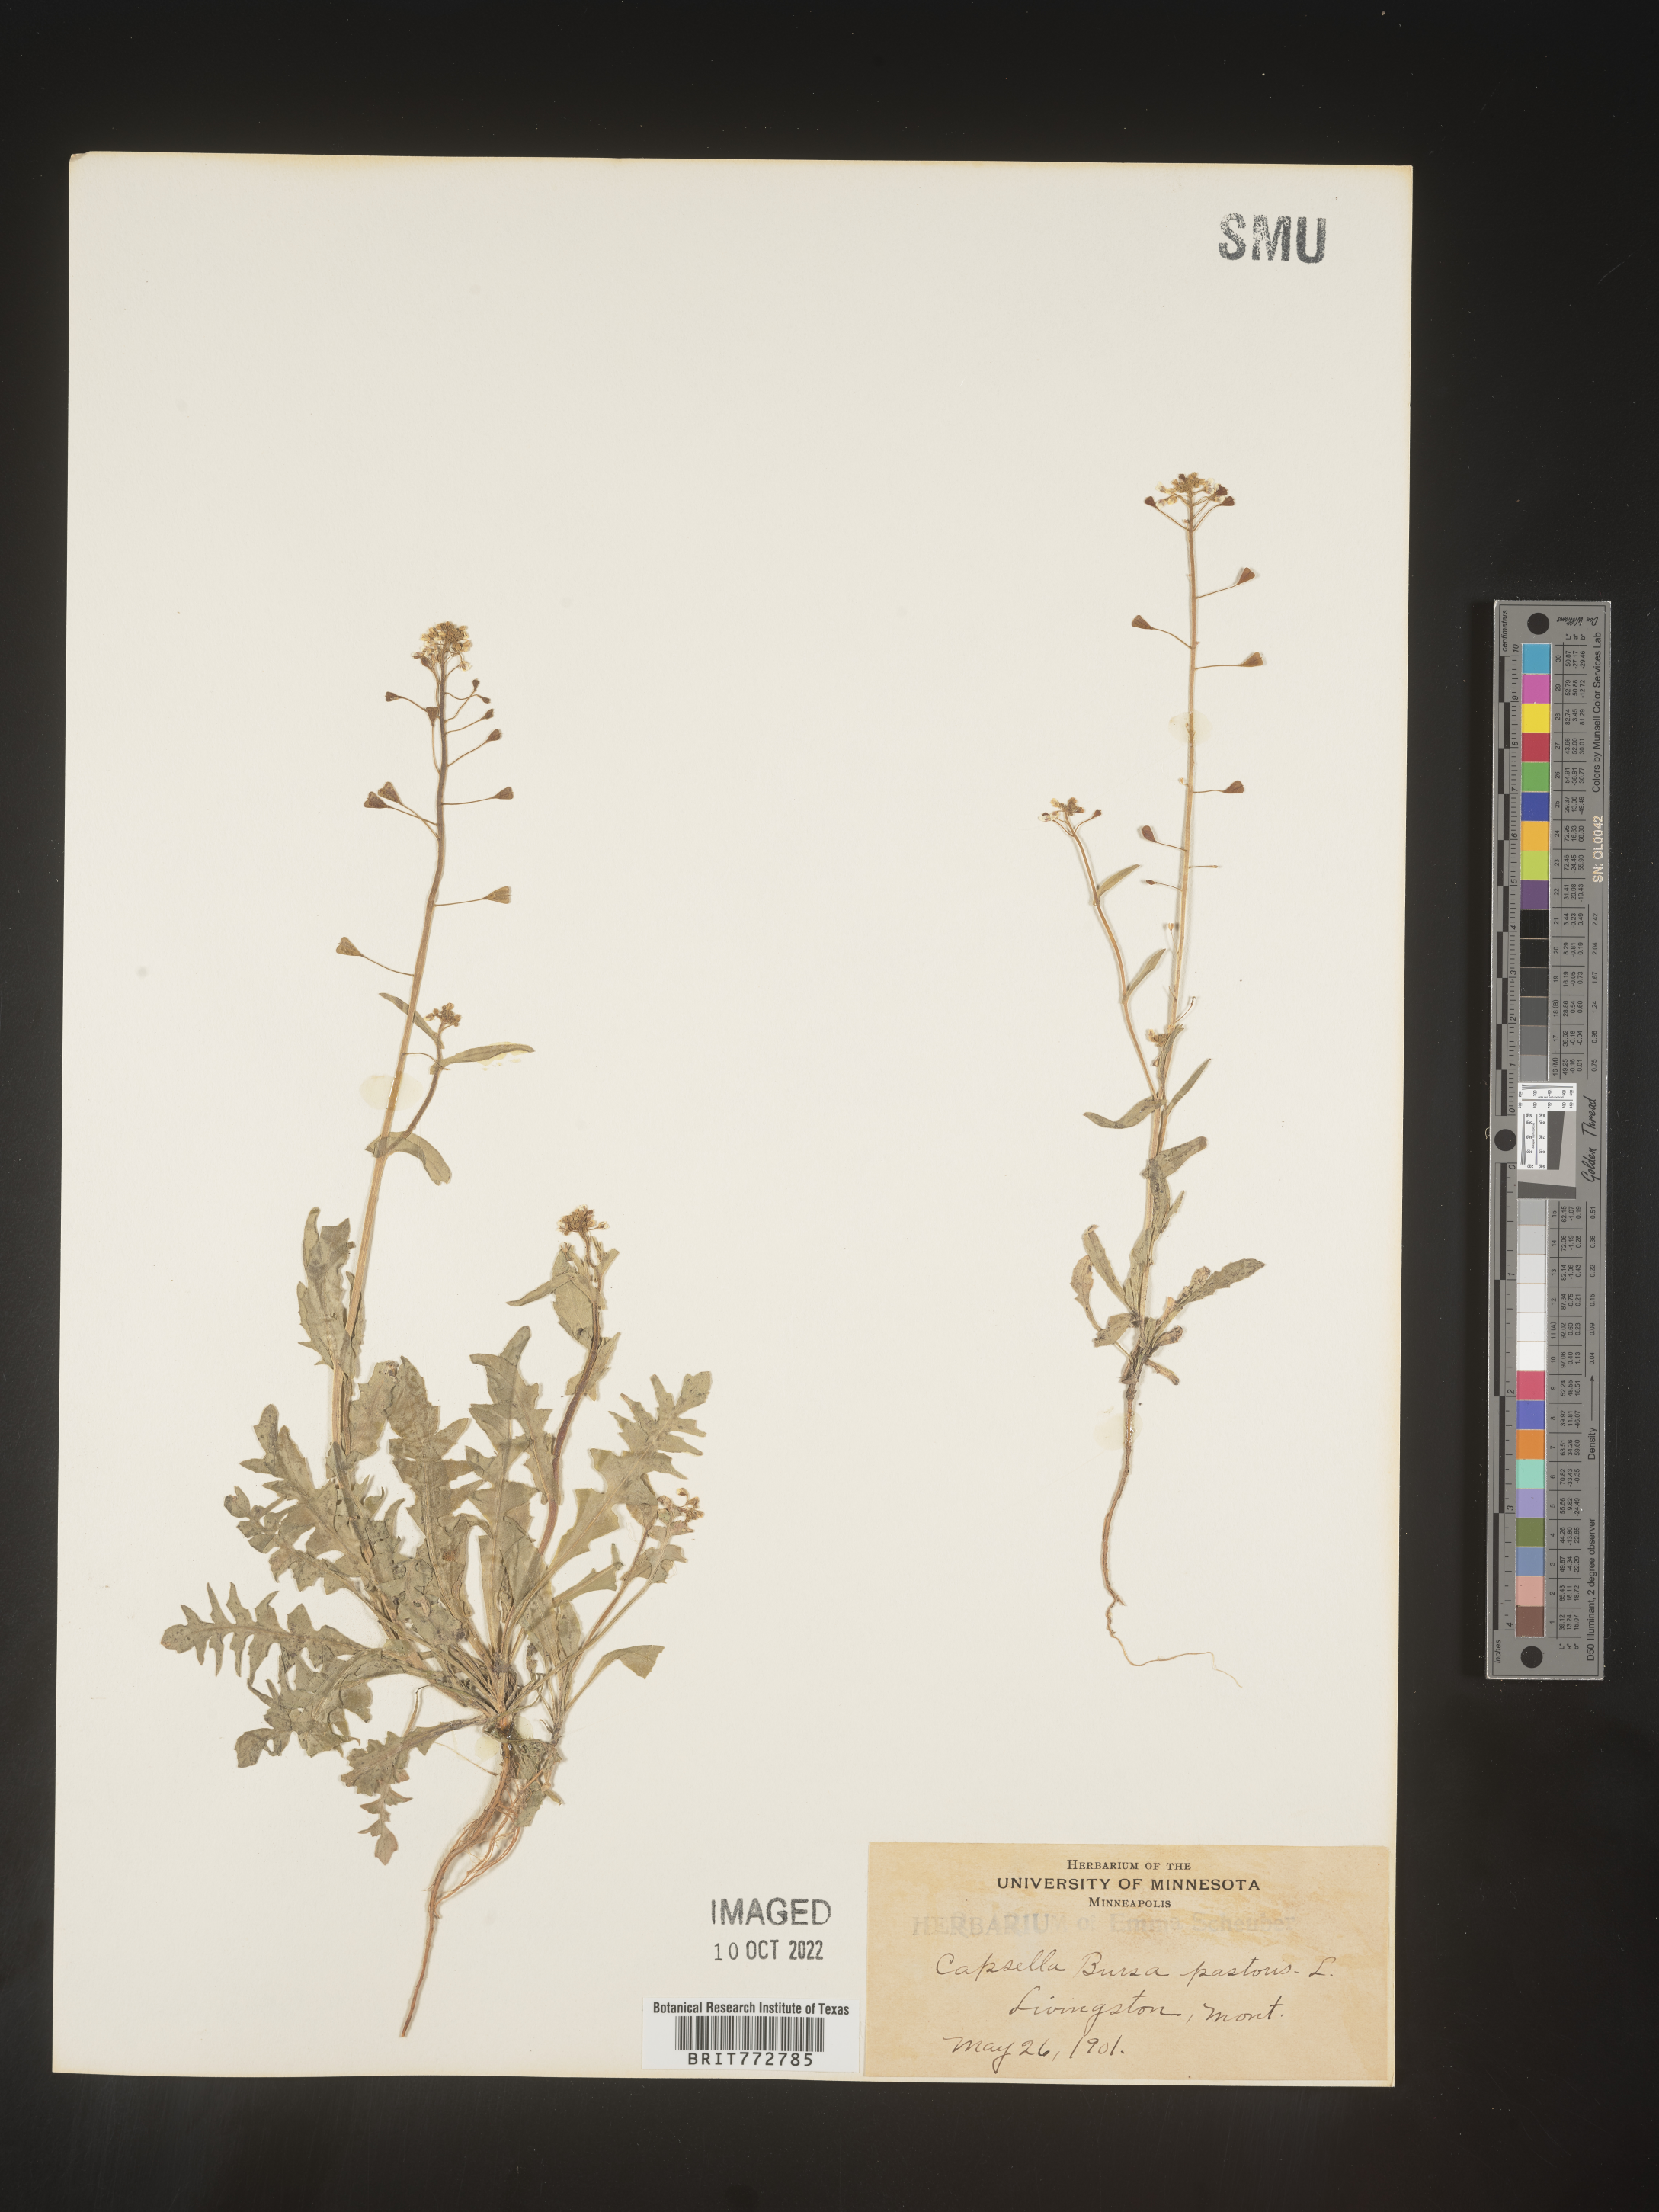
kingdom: Plantae
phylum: Tracheophyta
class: Magnoliopsida
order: Brassicales
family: Brassicaceae
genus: Capsella
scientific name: Capsella bursa-pastoris
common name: Shepherd's purse
